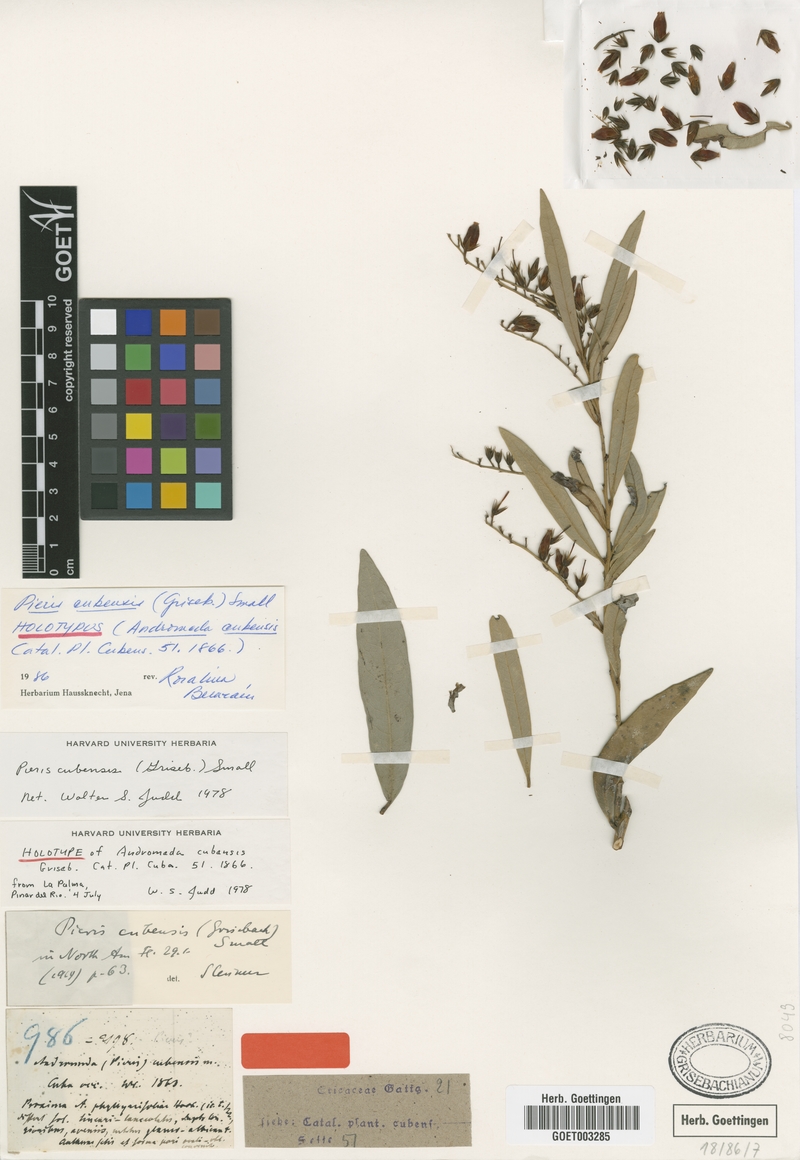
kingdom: Plantae
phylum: Tracheophyta
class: Magnoliopsida
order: Ericales
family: Ericaceae
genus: Pieris
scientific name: Pieris cubensis
